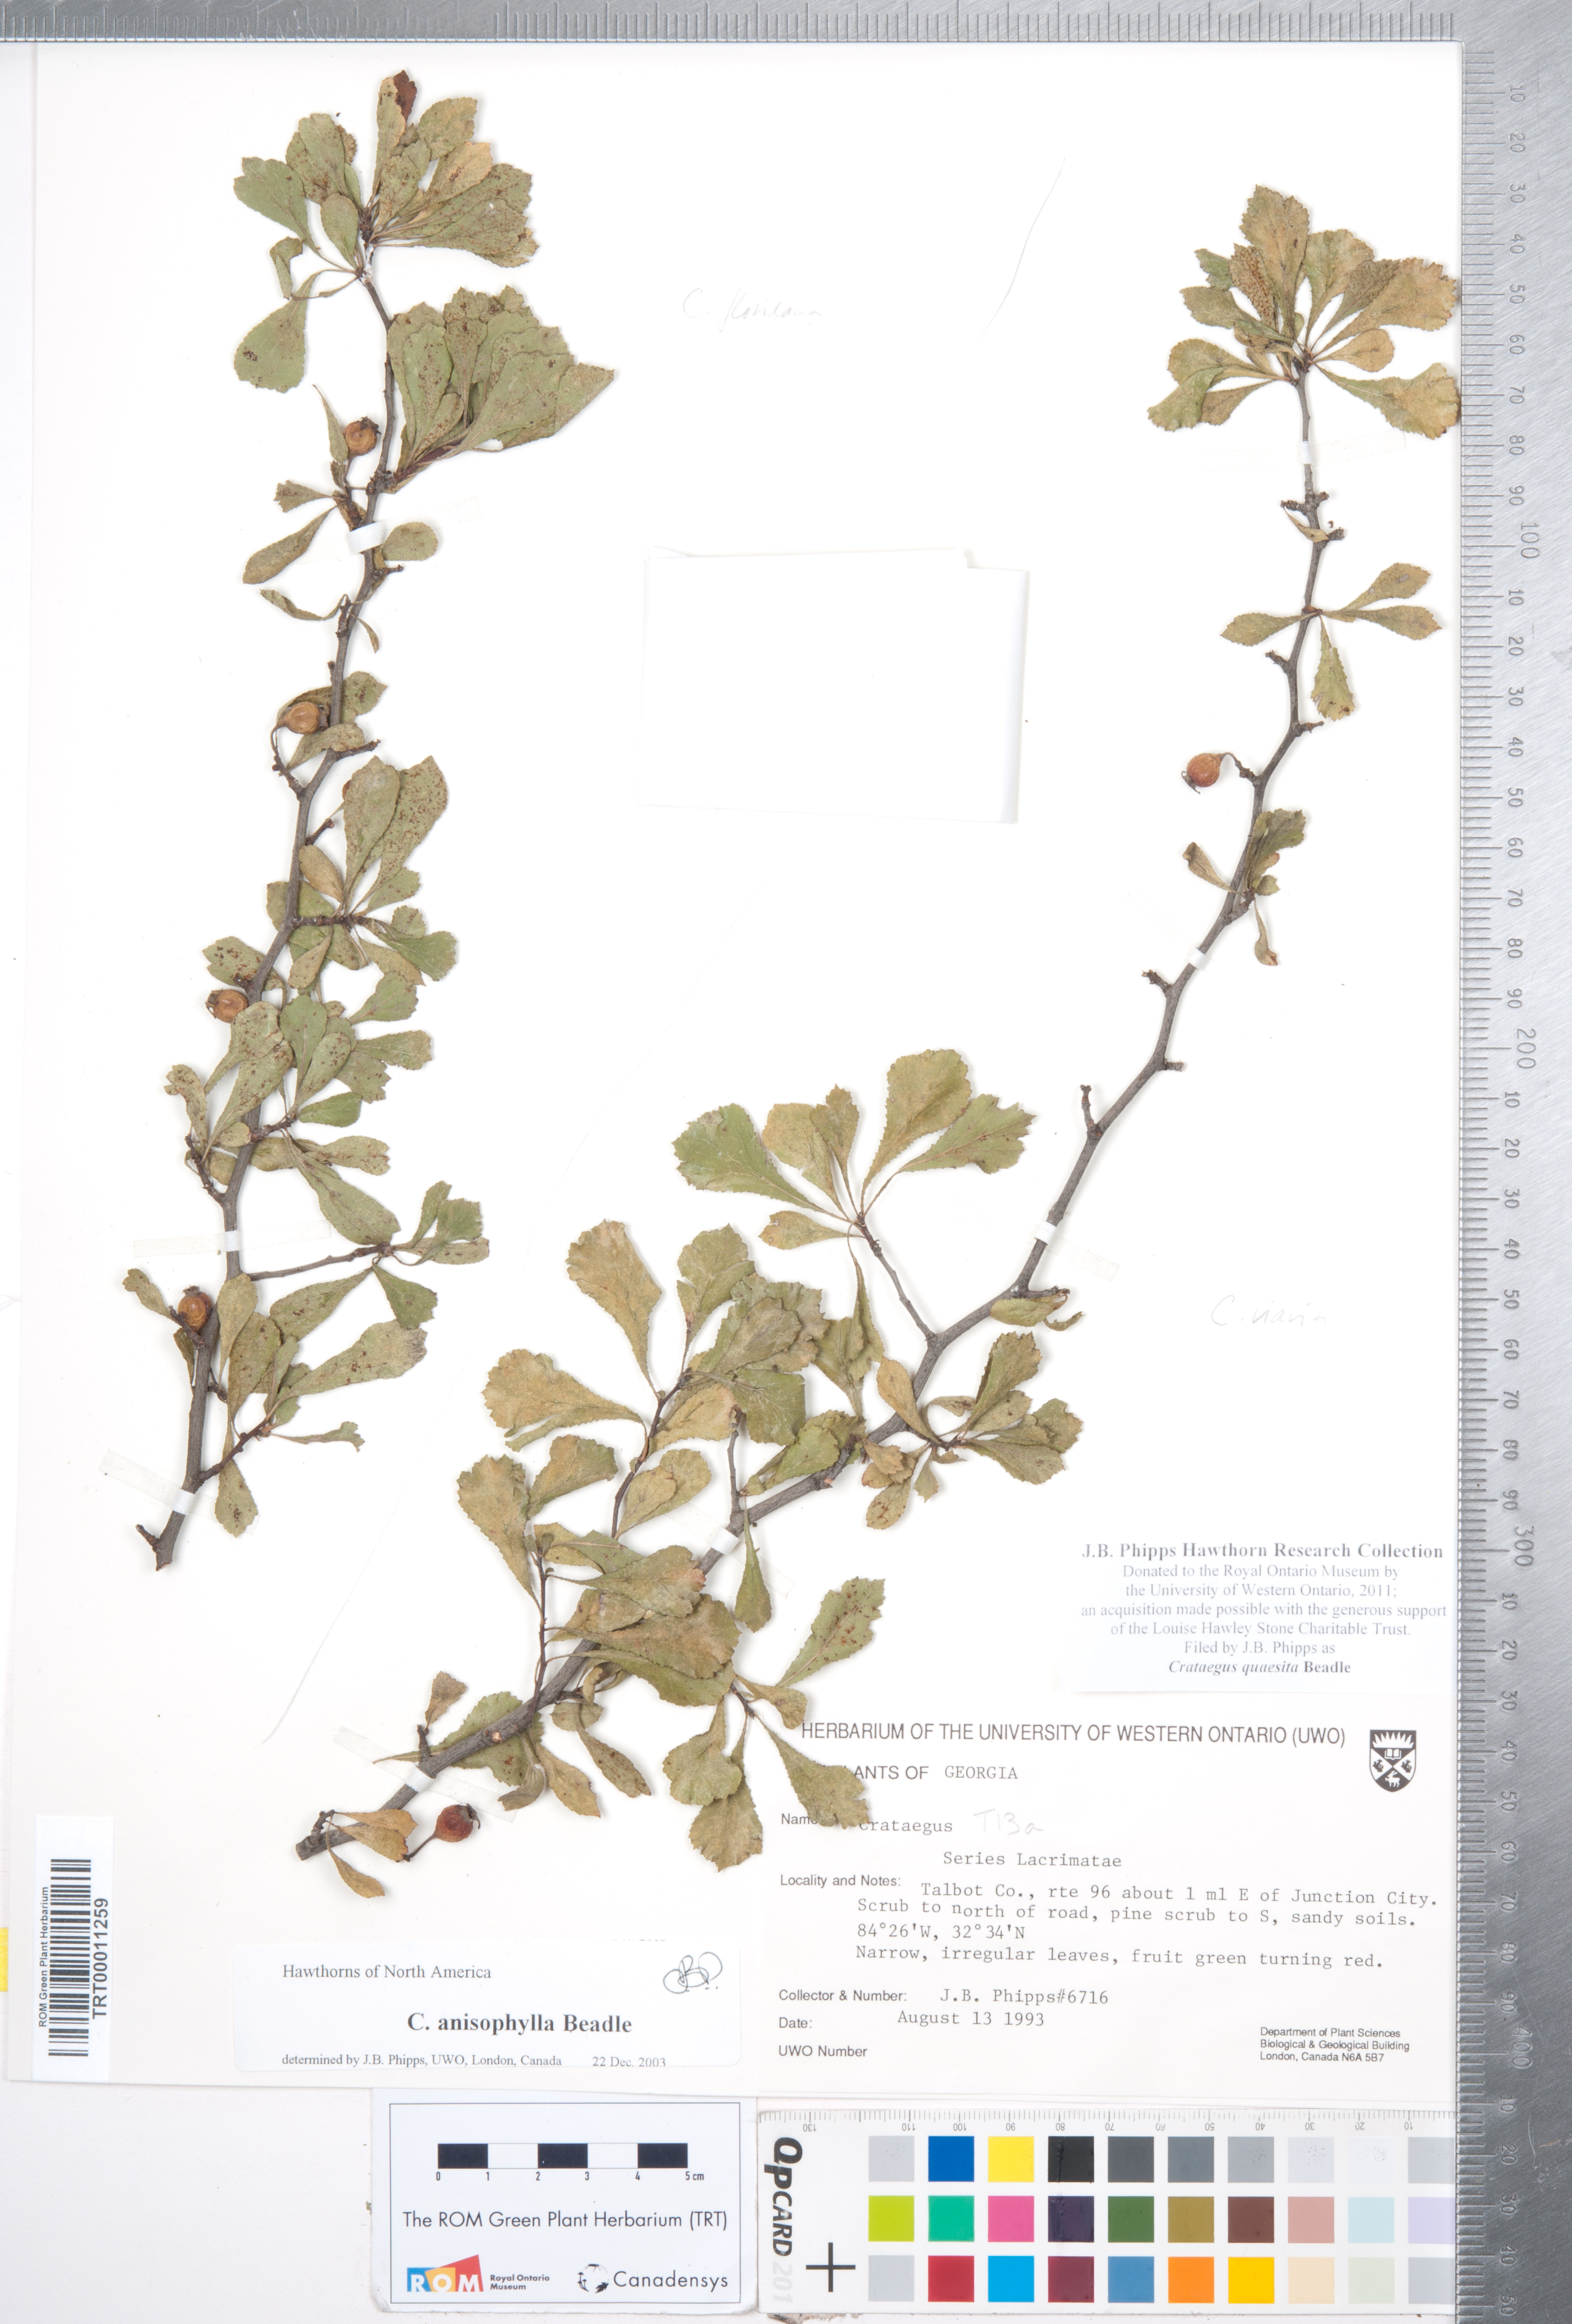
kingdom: Plantae
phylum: Tracheophyta
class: Magnoliopsida
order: Rosales
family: Rosaceae
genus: Crataegus
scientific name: Crataegus senta
